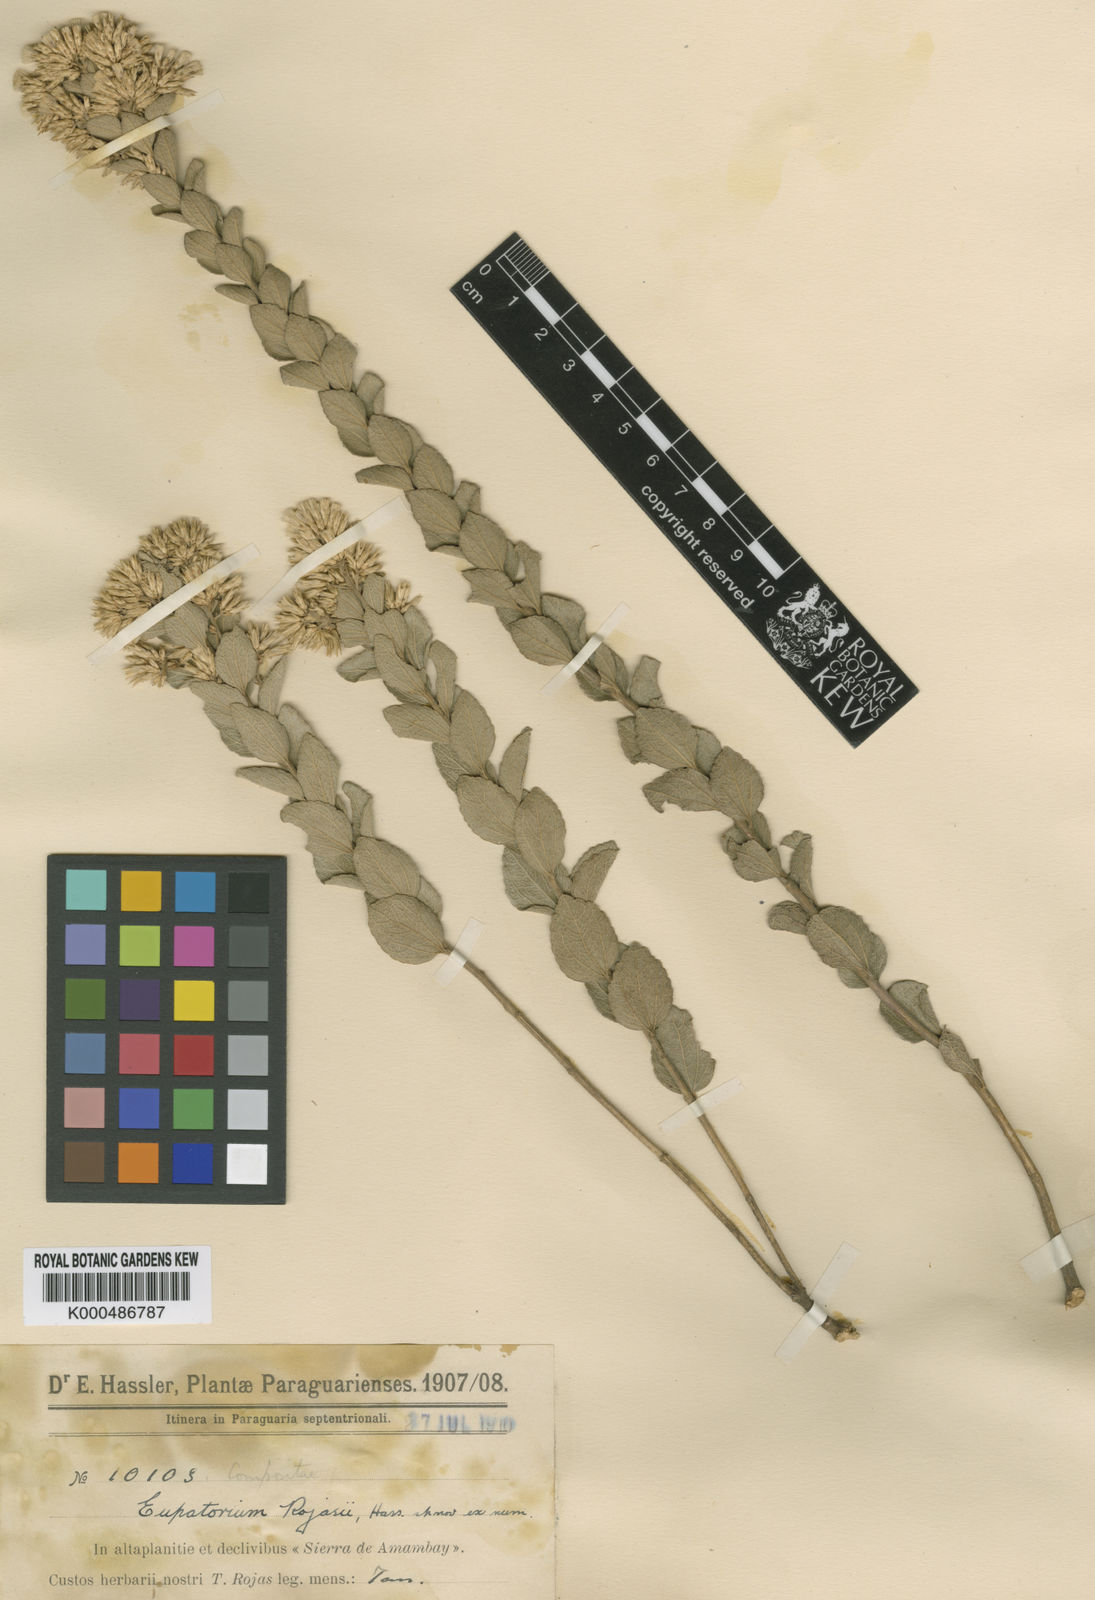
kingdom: Plantae
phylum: Tracheophyta
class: Magnoliopsida
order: Asterales
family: Asteraceae
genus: Chromolaena
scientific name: Chromolaena rojasii
